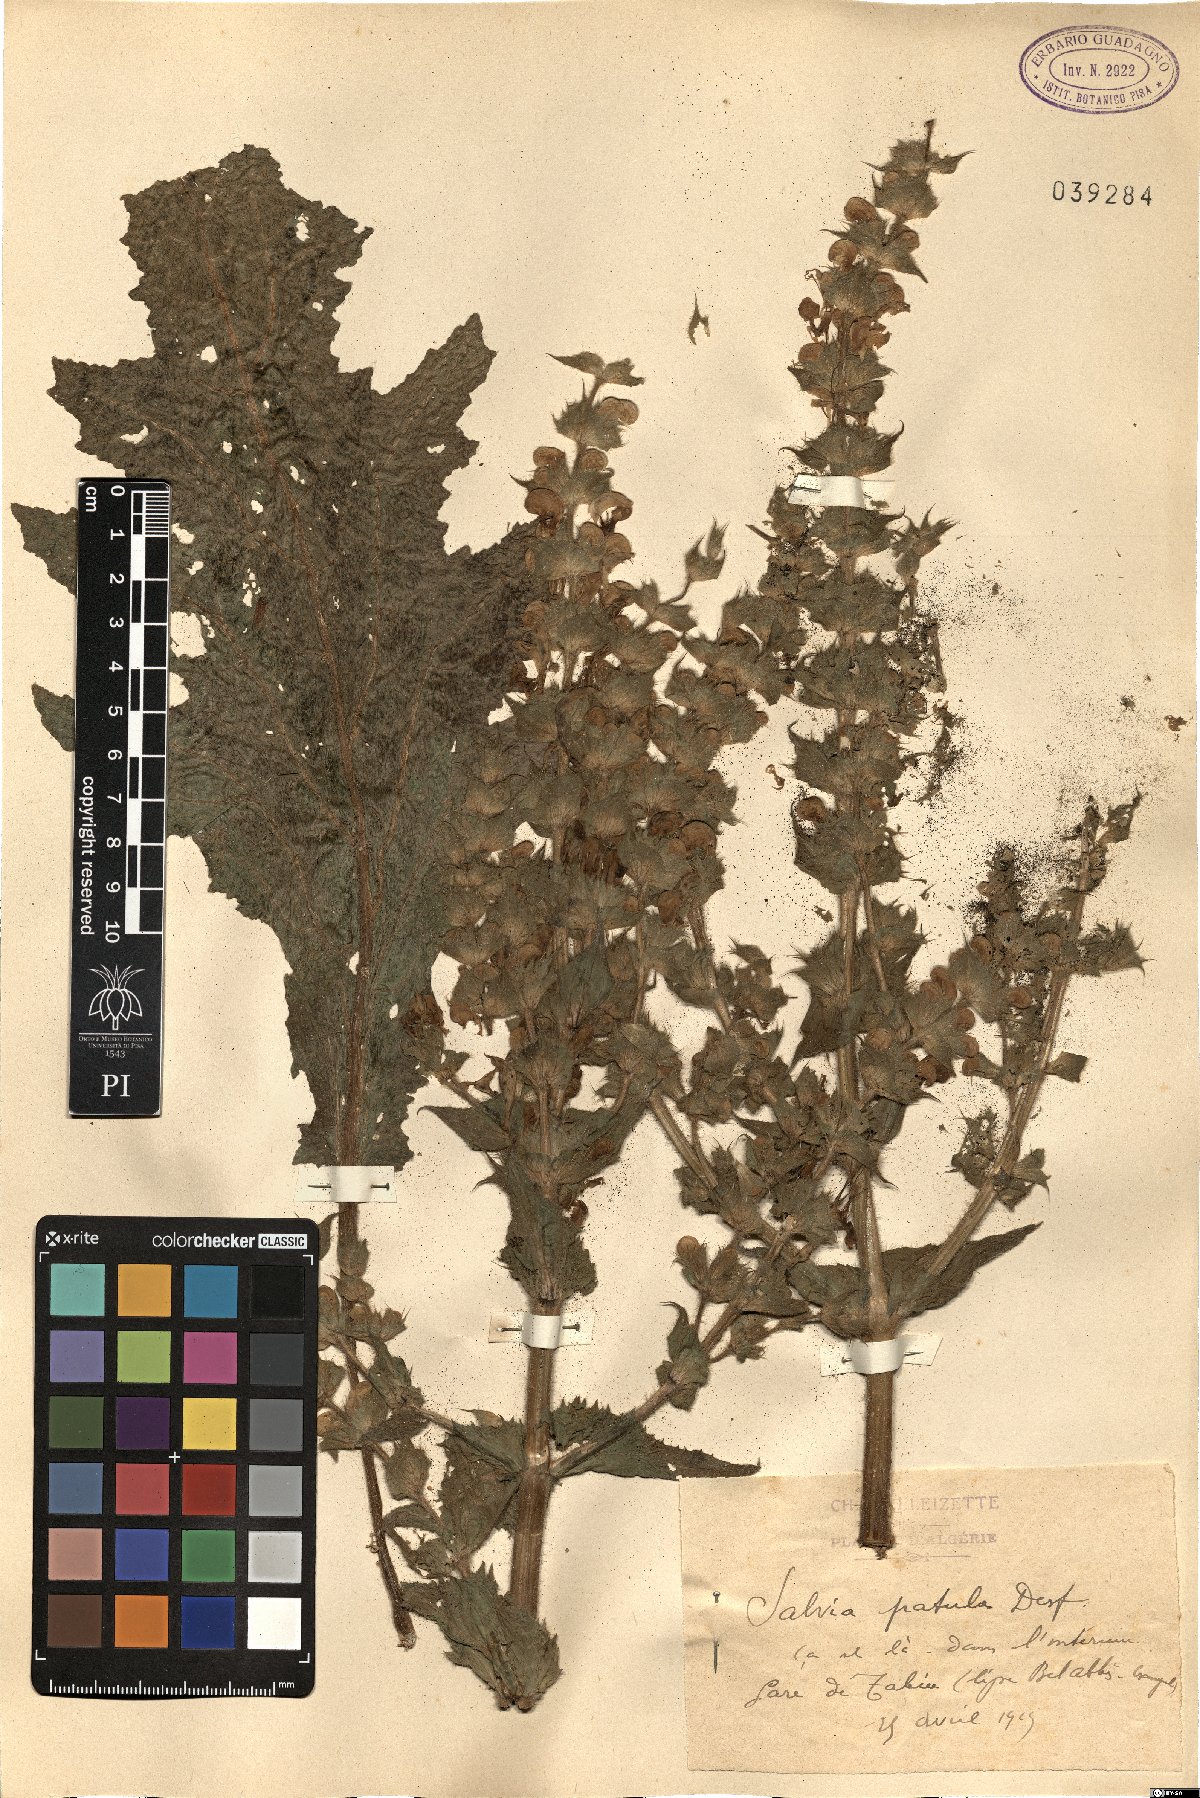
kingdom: Plantae
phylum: Tracheophyta
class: Magnoliopsida
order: Lamiales
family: Lamiaceae
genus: Salvia
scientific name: Salvia argentea
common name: Silver sage
